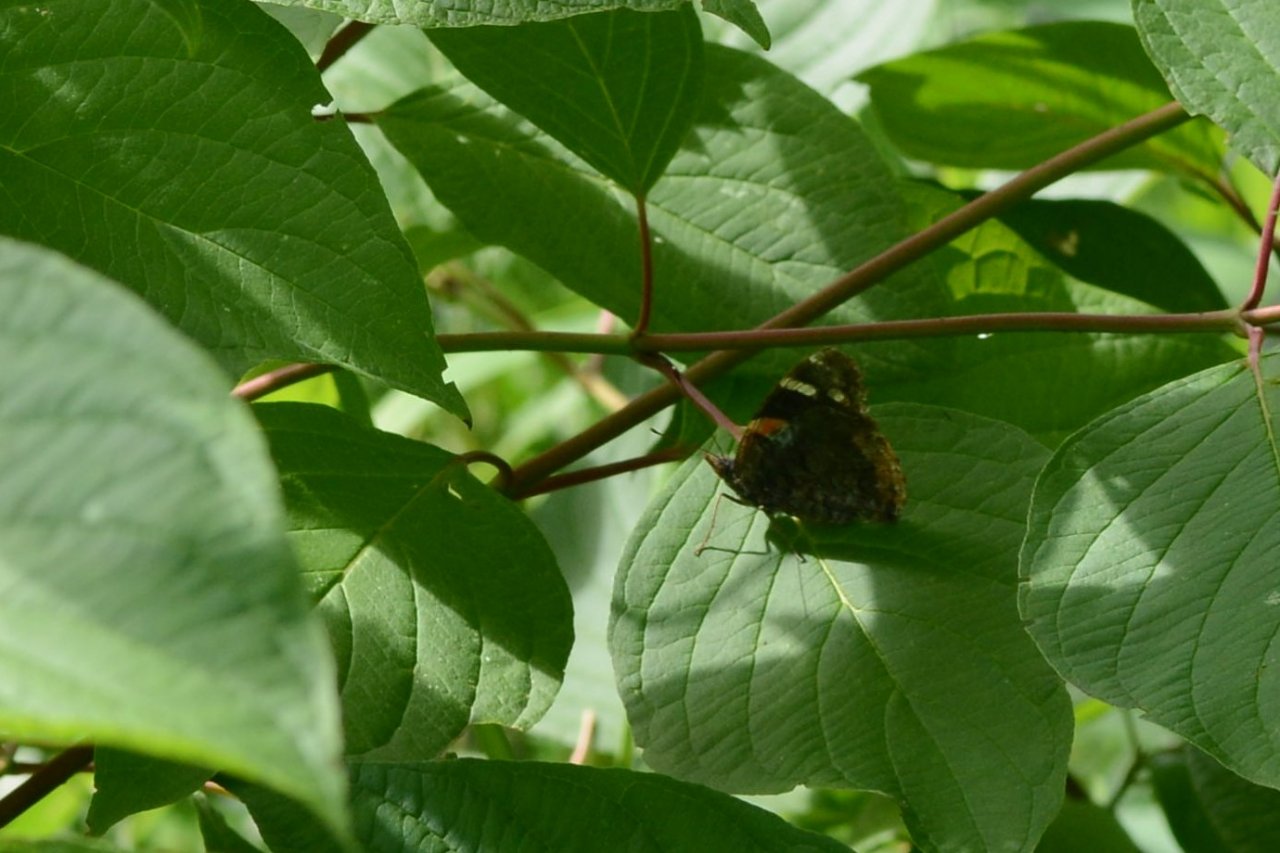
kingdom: Animalia
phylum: Arthropoda
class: Insecta
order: Lepidoptera
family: Nymphalidae
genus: Vanessa
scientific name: Vanessa atalanta
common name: Red Admiral
